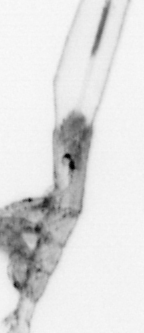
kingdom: Animalia
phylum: Arthropoda
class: Copepoda
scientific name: Copepoda
